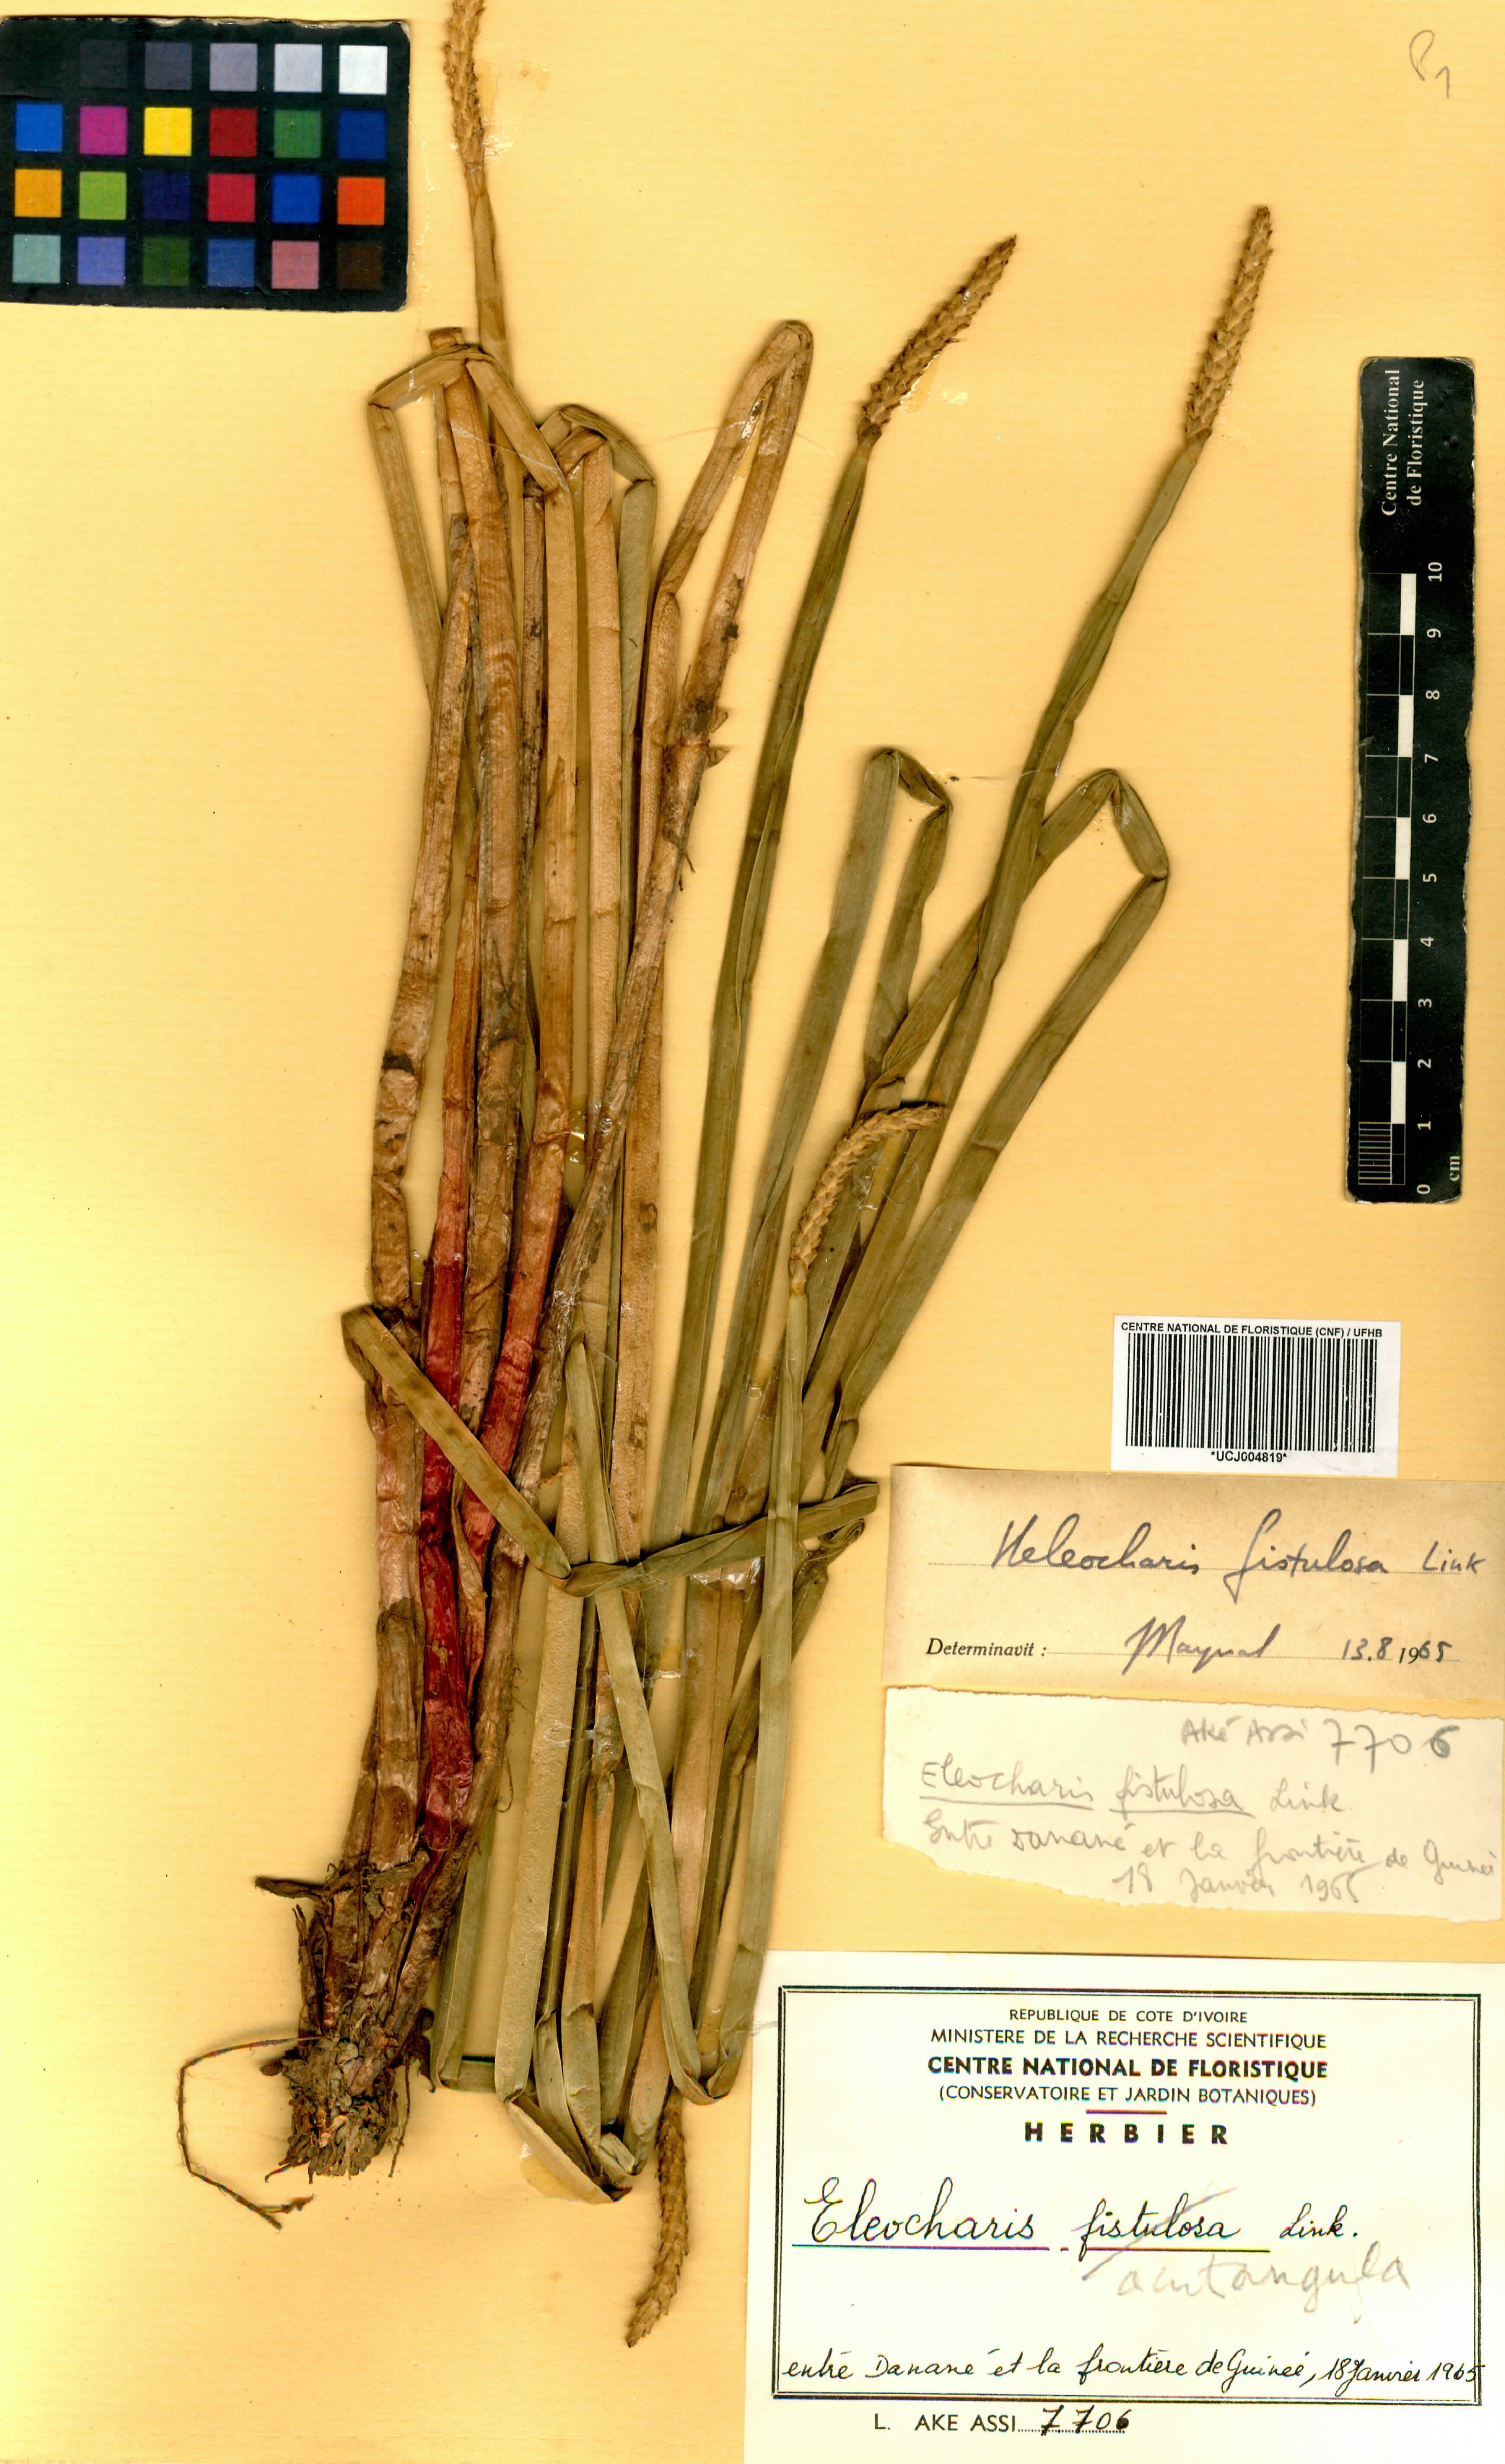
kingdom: Plantae
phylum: Tracheophyta
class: Liliopsida
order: Poales
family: Cyperaceae
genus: Eleocharis
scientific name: Eleocharis acutangula
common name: Acute spikerush
